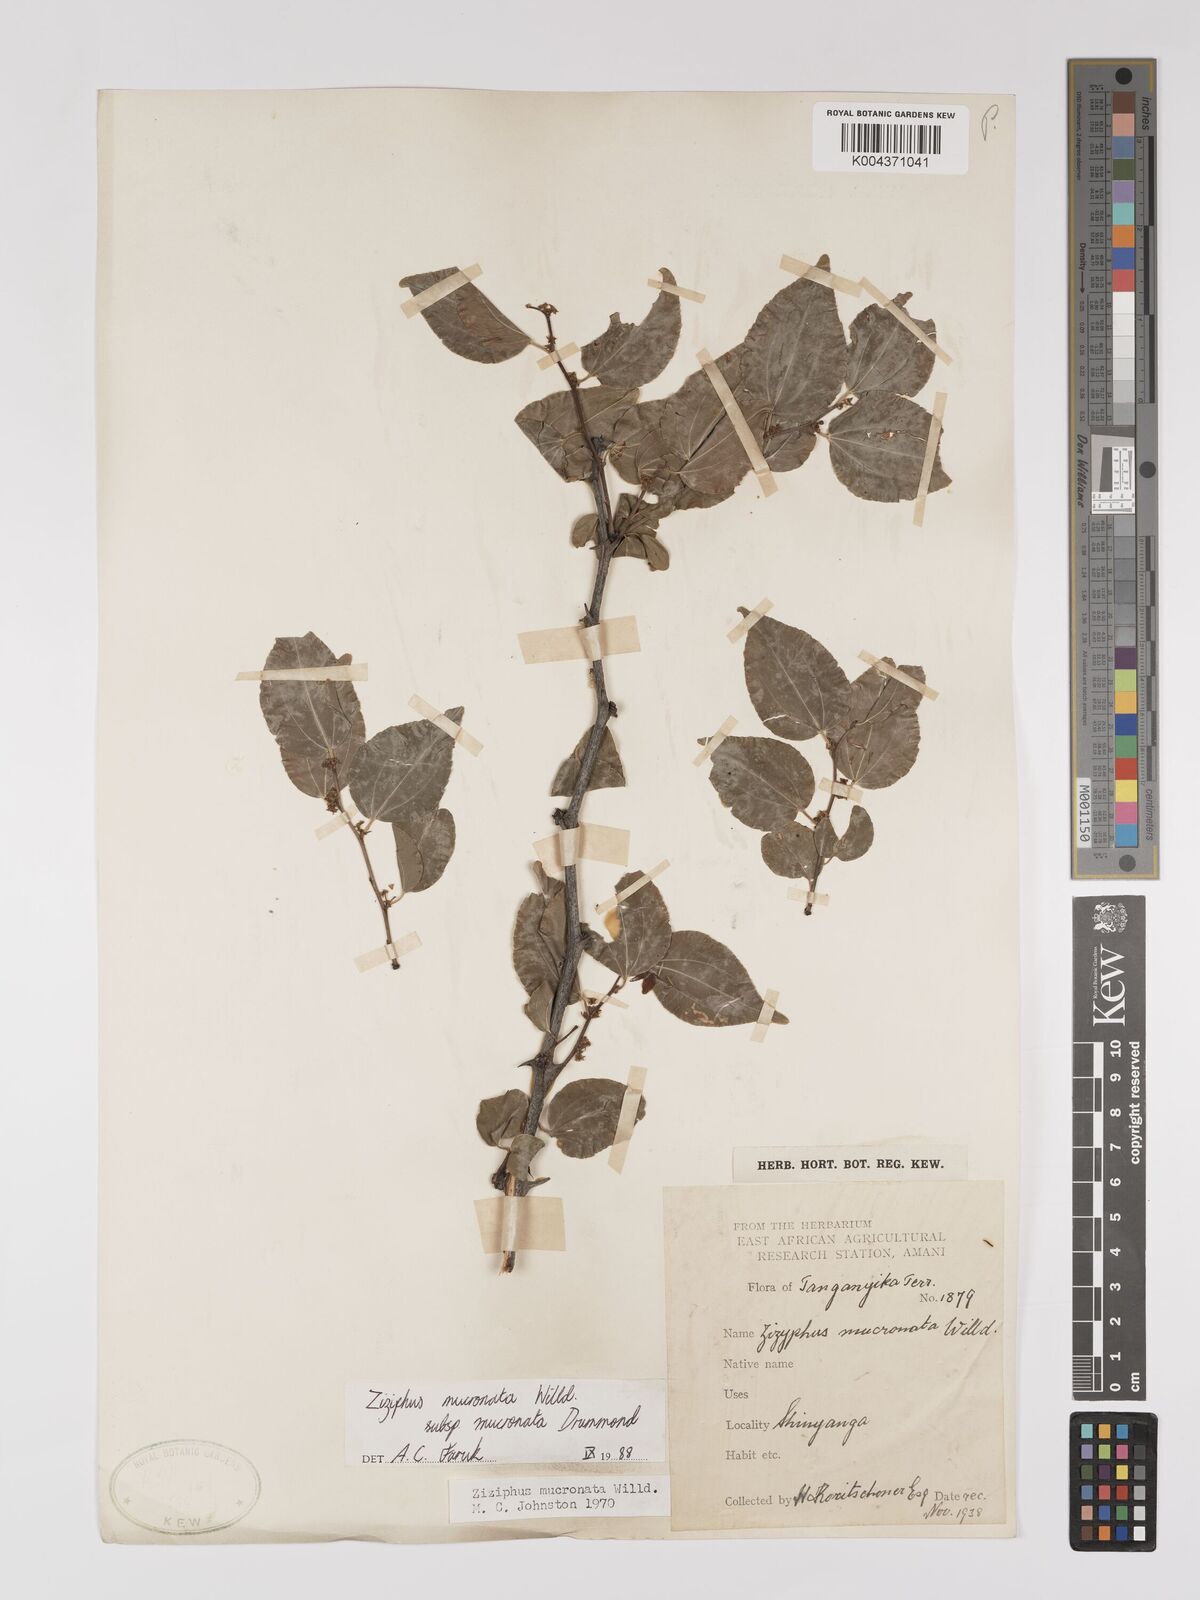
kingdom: Plantae
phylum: Tracheophyta
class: Magnoliopsida
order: Rosales
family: Rhamnaceae
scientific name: Rhamnaceae
